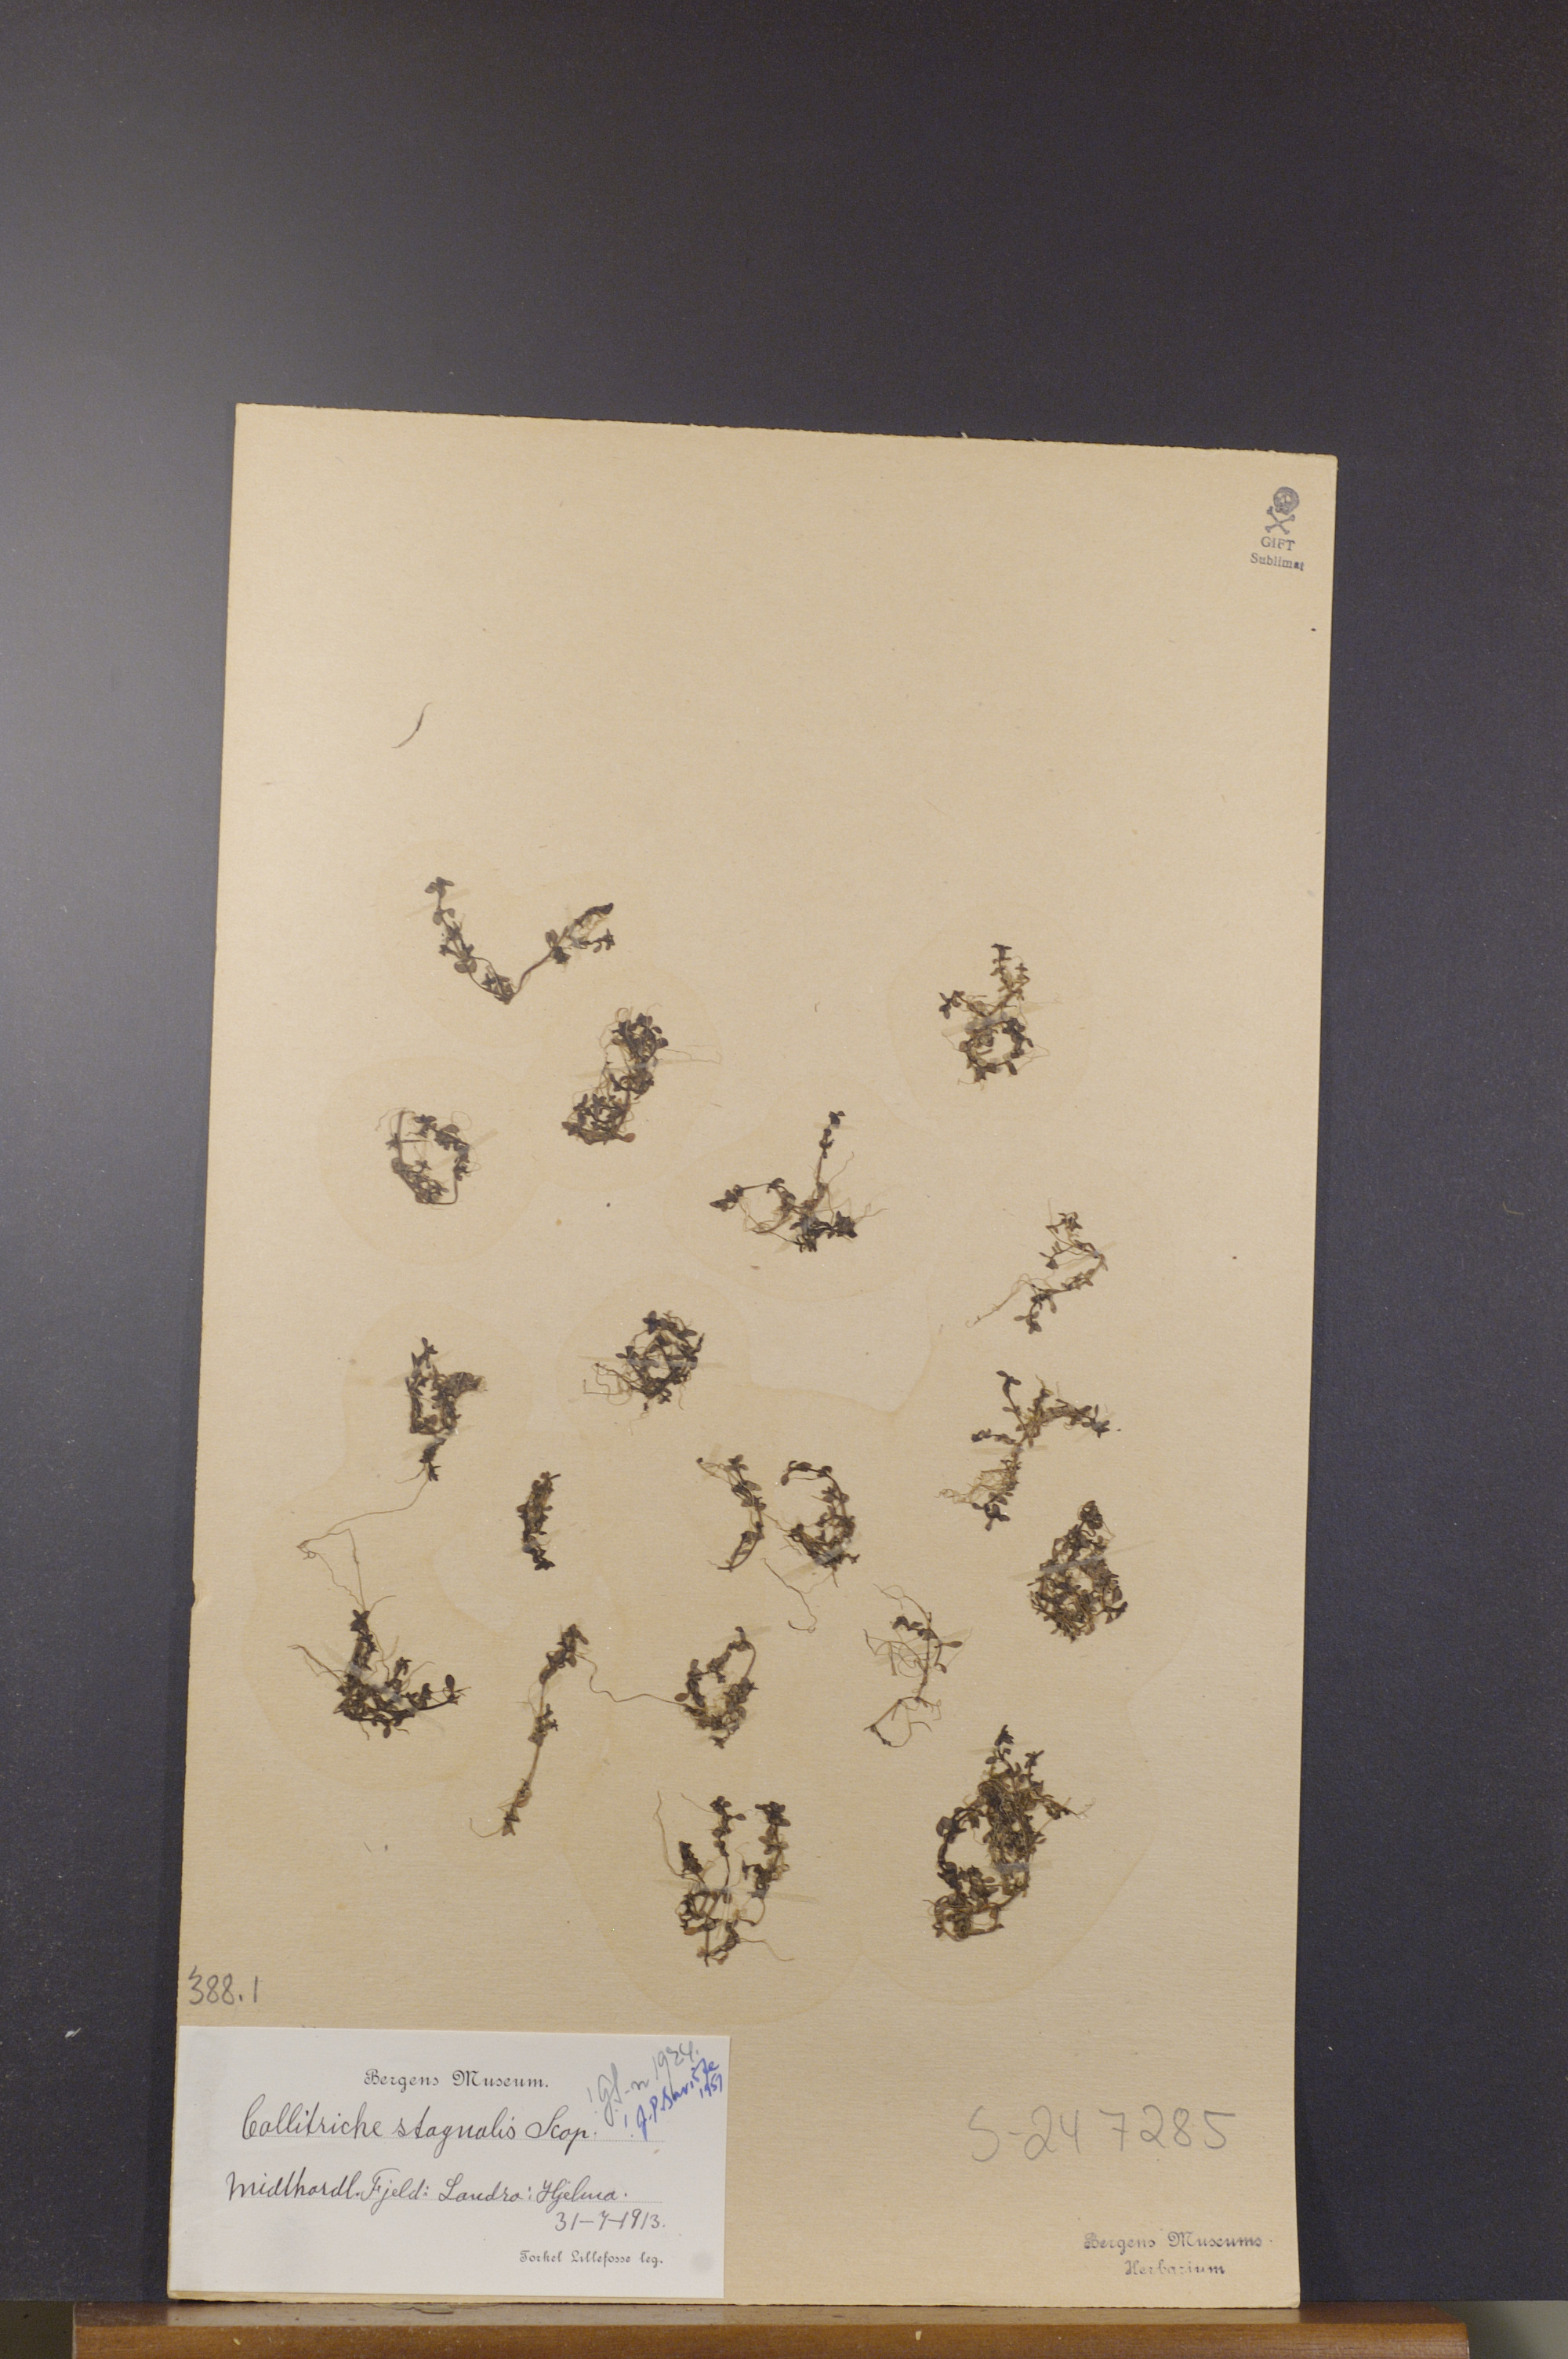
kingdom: Plantae
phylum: Tracheophyta
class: Magnoliopsida
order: Lamiales
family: Plantaginaceae
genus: Callitriche
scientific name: Callitriche stagnalis
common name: Common water-starwort
